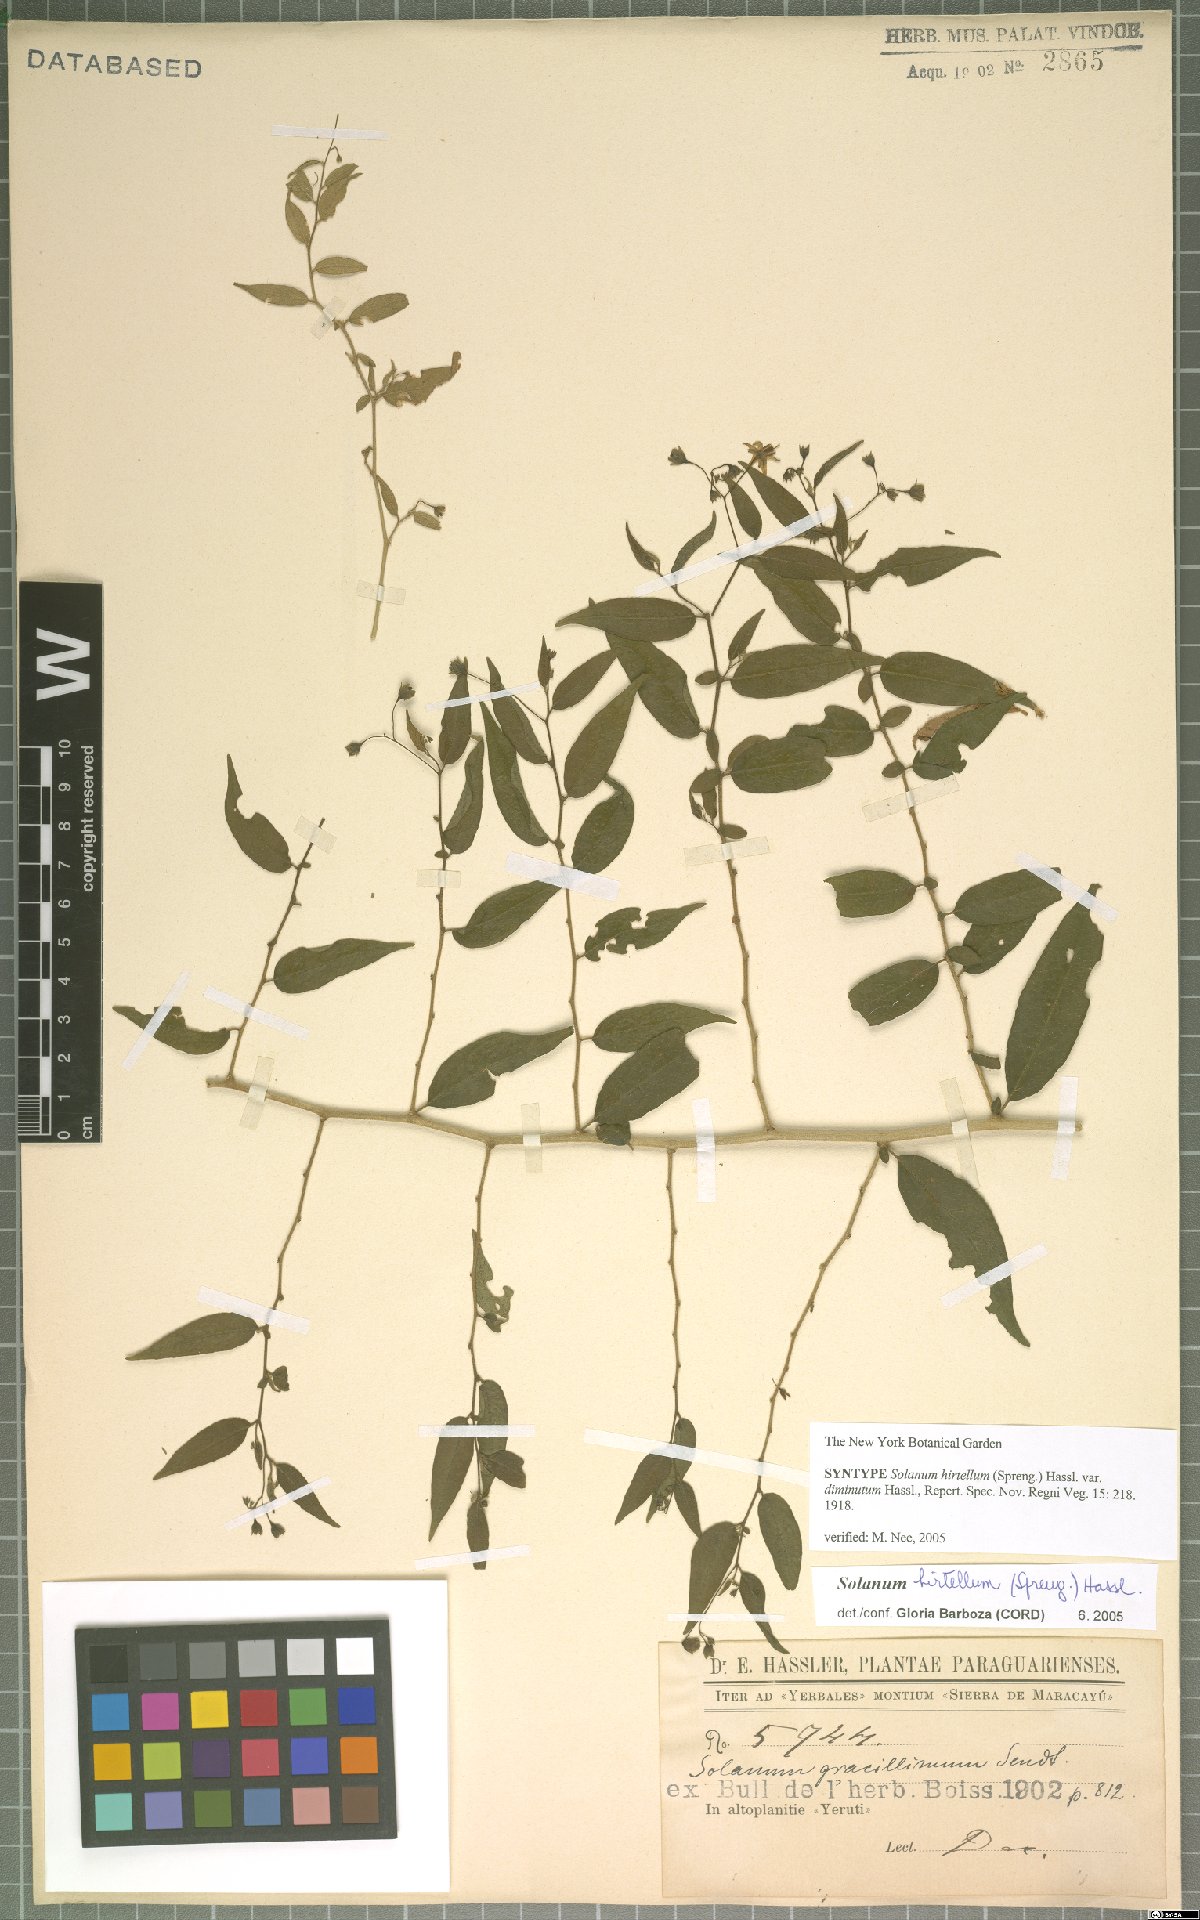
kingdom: Plantae
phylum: Tracheophyta
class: Magnoliopsida
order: Solanales
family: Solanaceae
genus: Solanum
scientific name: Solanum hirtellum
